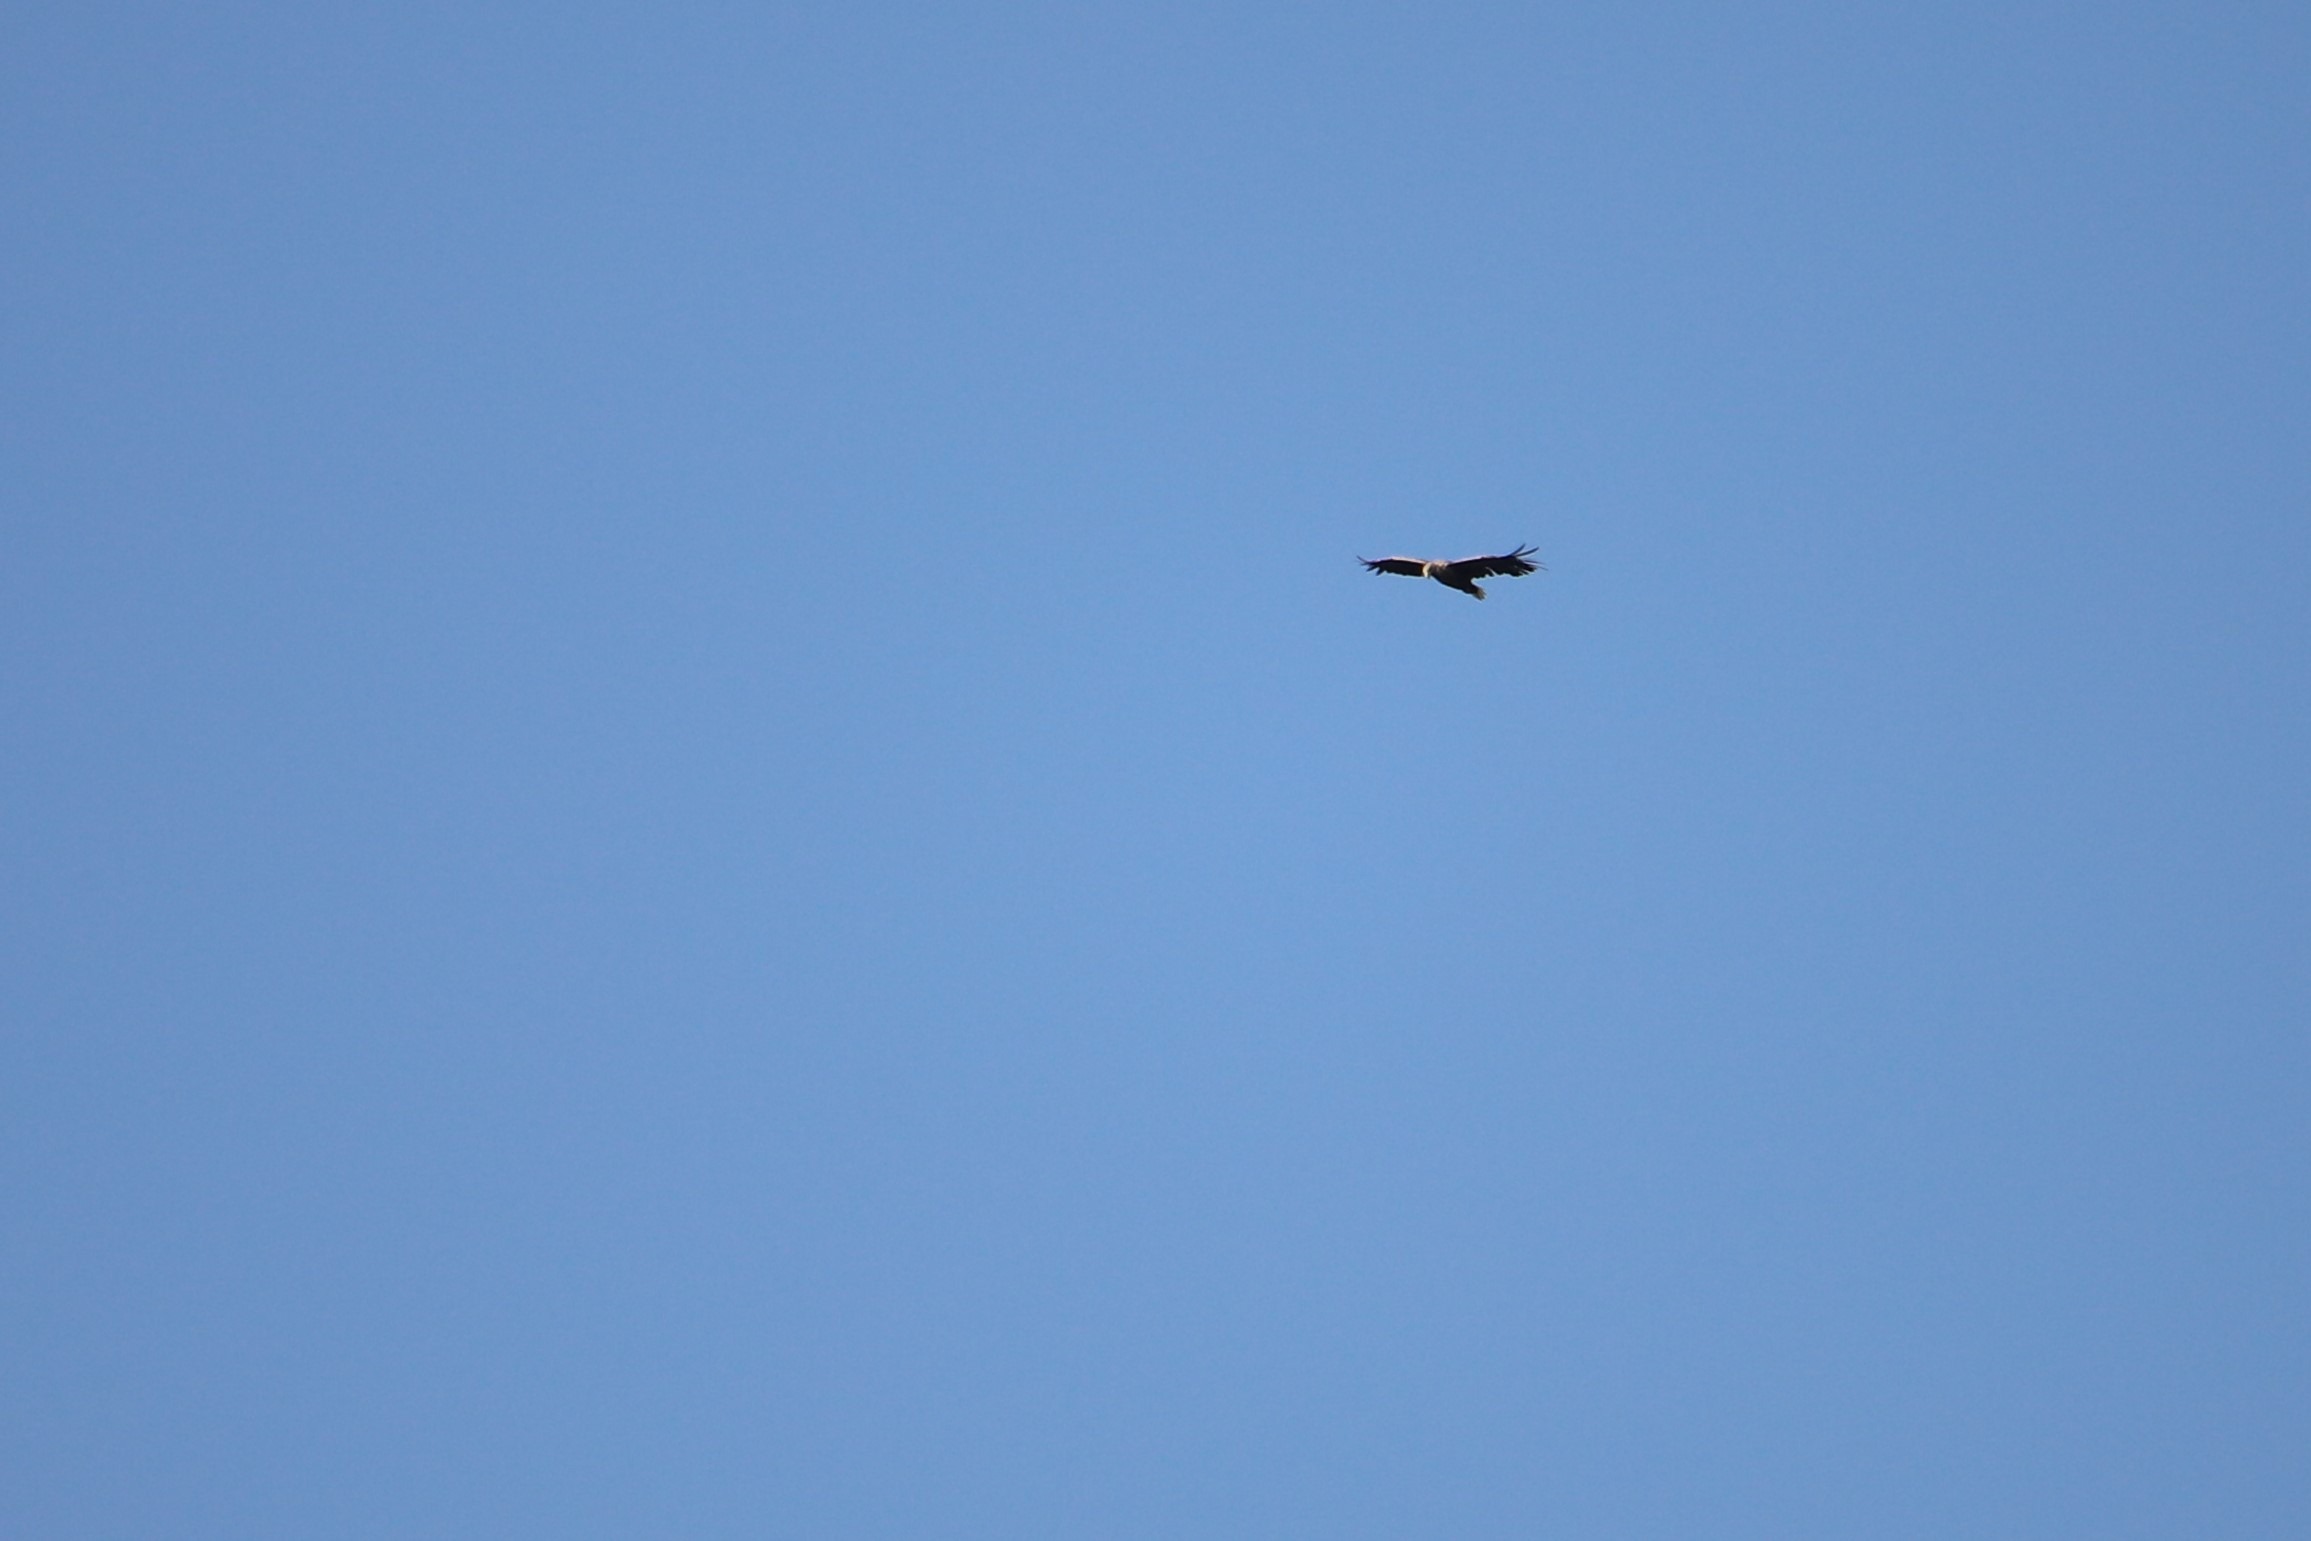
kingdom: Animalia
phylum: Chordata
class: Aves
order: Accipitriformes
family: Accipitridae
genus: Haliaeetus
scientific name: Haliaeetus albicilla
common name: Havørn
